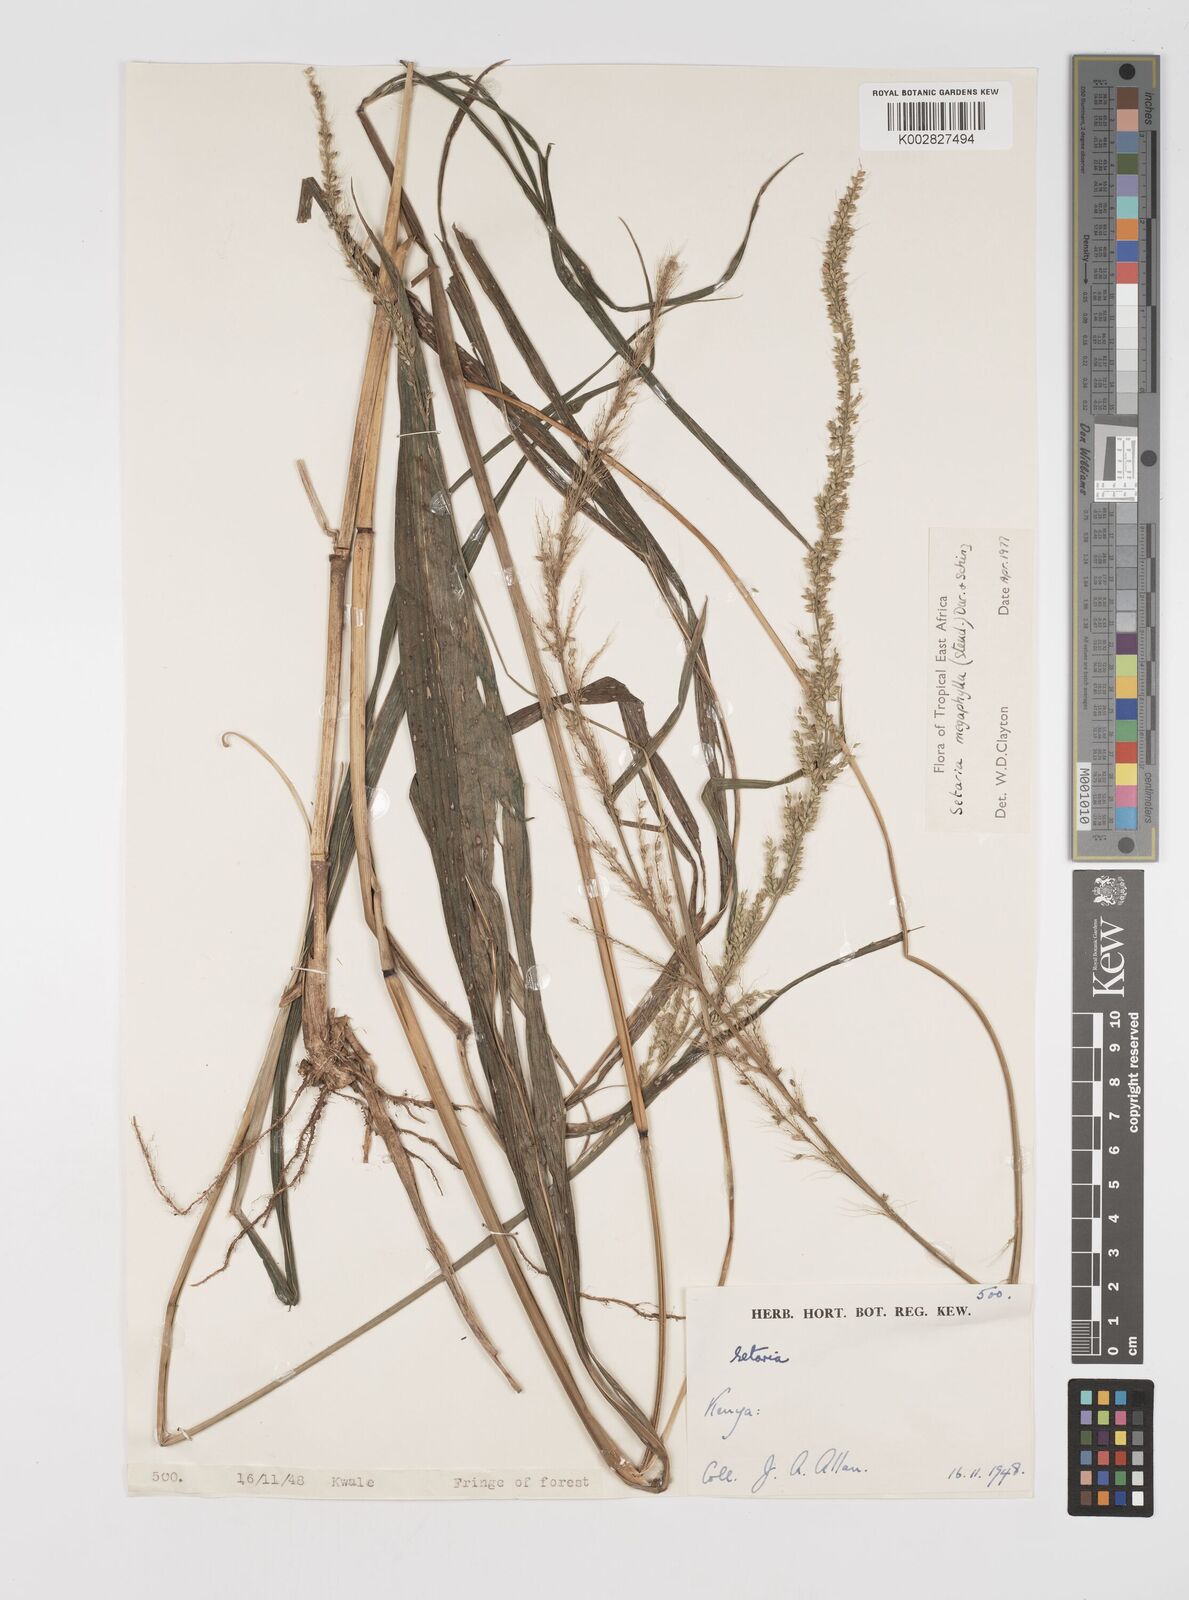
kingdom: Plantae
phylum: Tracheophyta
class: Liliopsida
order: Poales
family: Poaceae
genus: Setaria
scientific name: Setaria megaphylla
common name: Bigleaf bristlegrass
